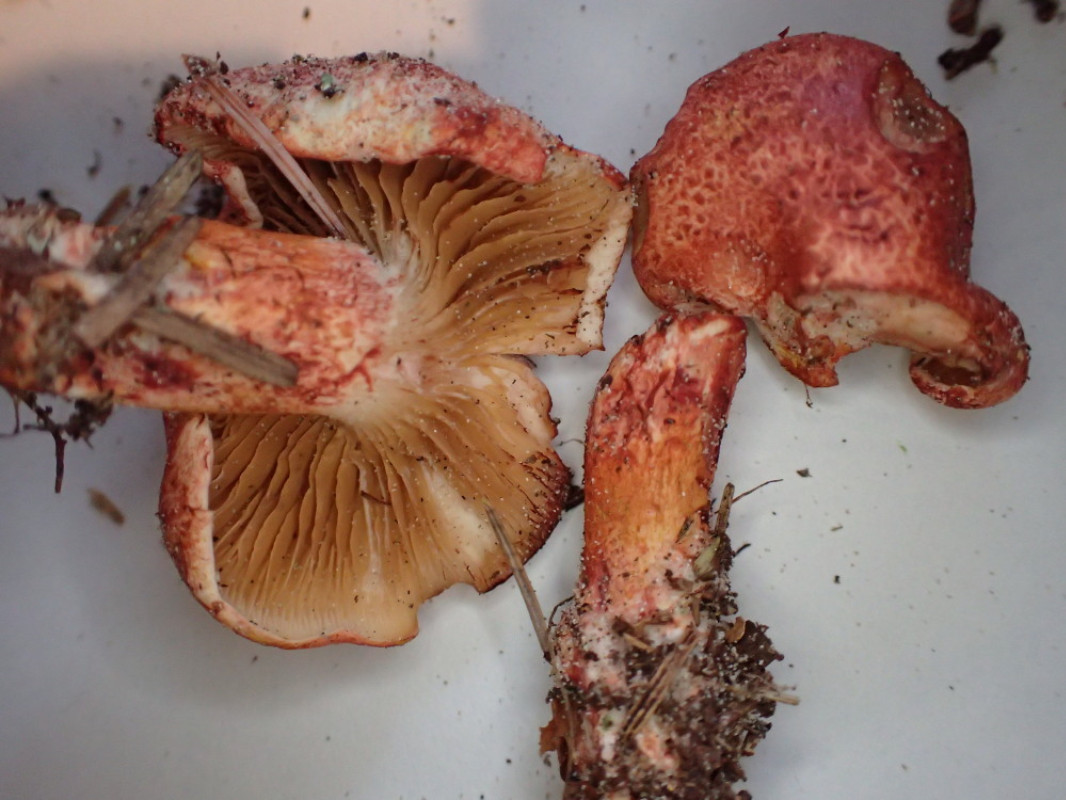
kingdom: Fungi
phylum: Basidiomycota
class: Agaricomycetes
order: Agaricales
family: Cortinariaceae
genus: Cortinarius
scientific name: Cortinarius bolaris
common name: cinnoberskællet slørhat
